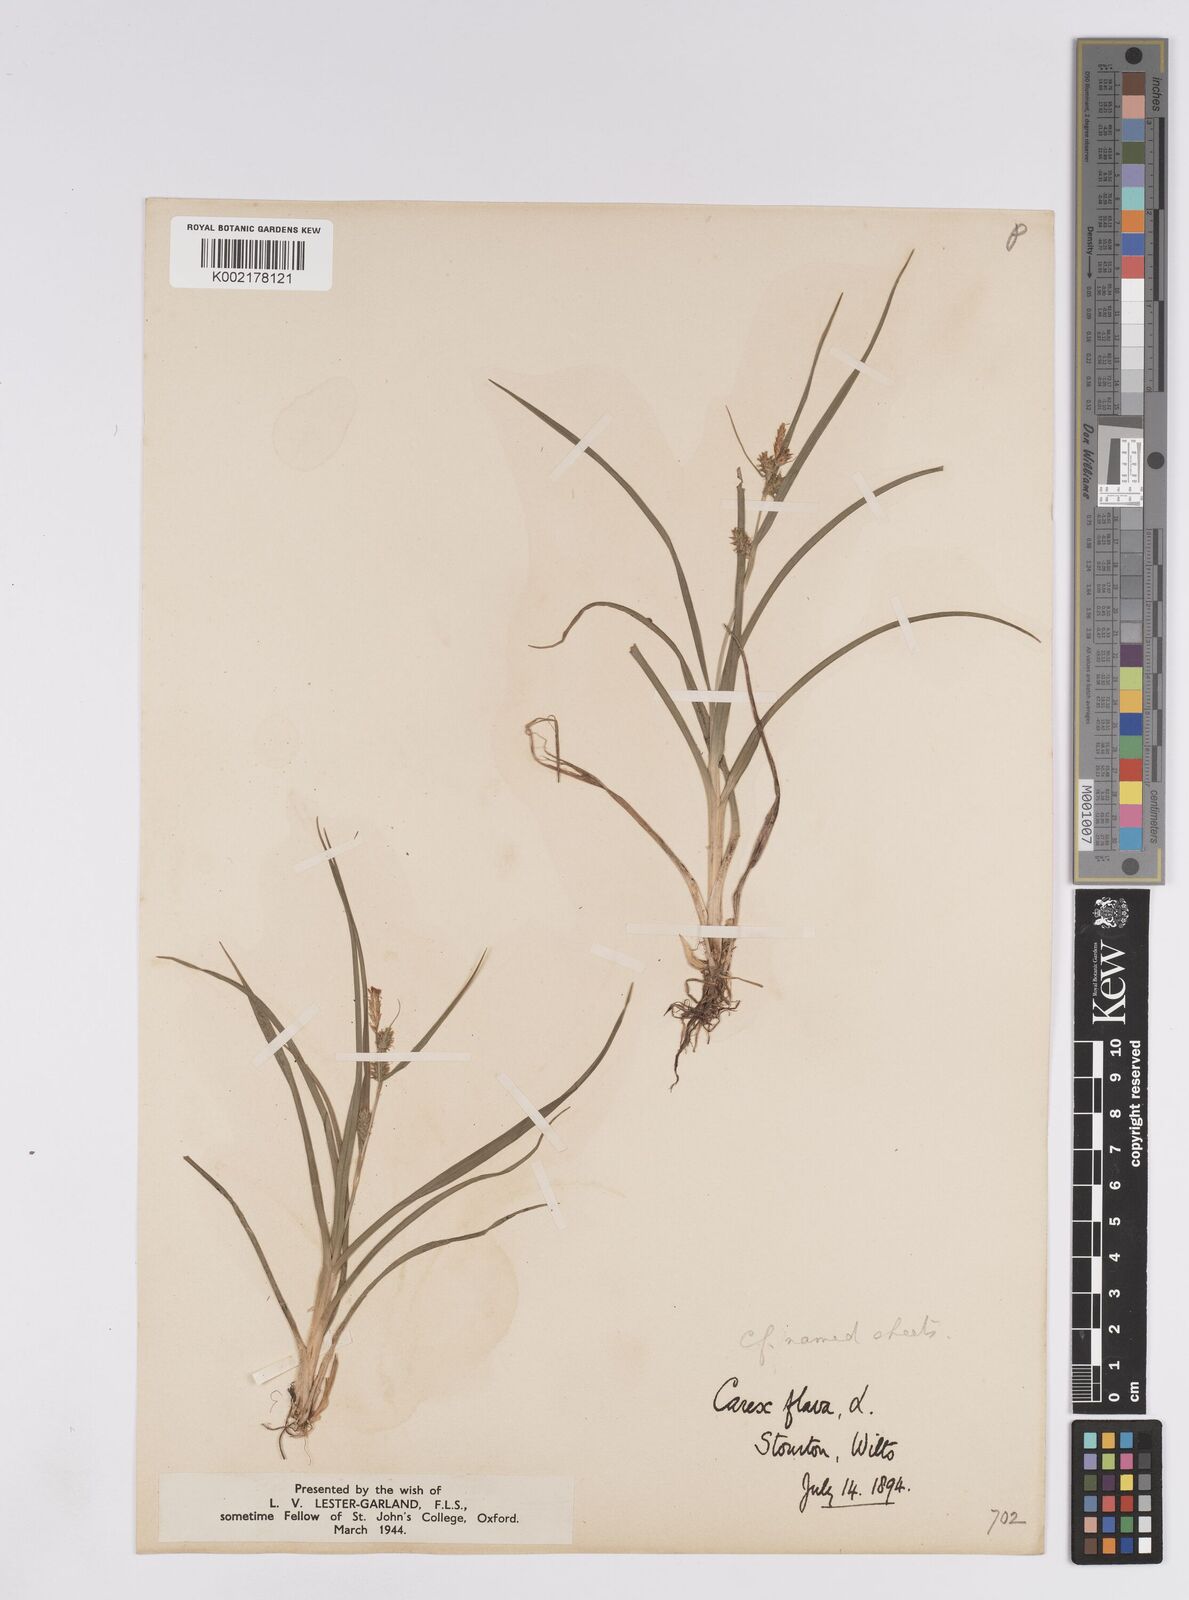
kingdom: Plantae
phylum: Tracheophyta
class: Liliopsida
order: Poales
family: Cyperaceae
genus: Carex
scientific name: Carex demissa
